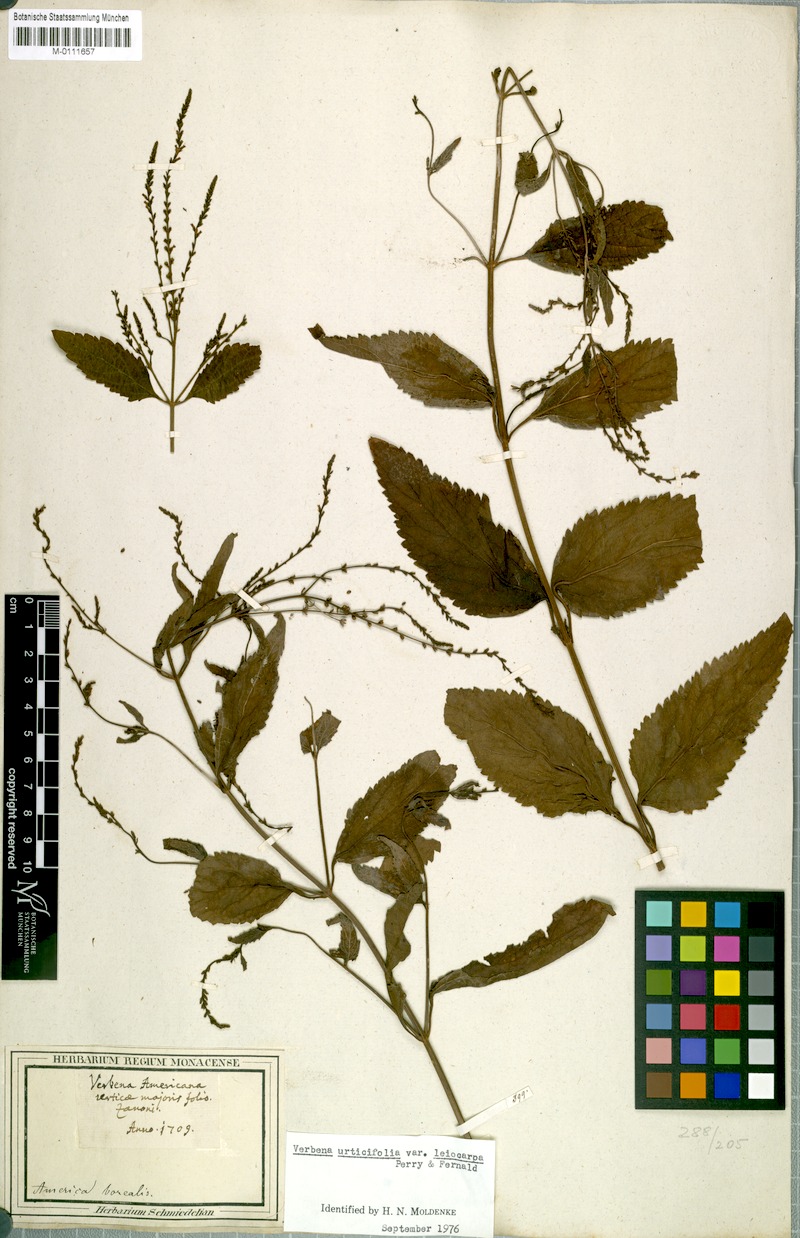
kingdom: Plantae
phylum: Tracheophyta
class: Magnoliopsida
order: Lamiales
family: Verbenaceae
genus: Verbena
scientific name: Verbena urticifolia
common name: Nettle-leaved vervain
